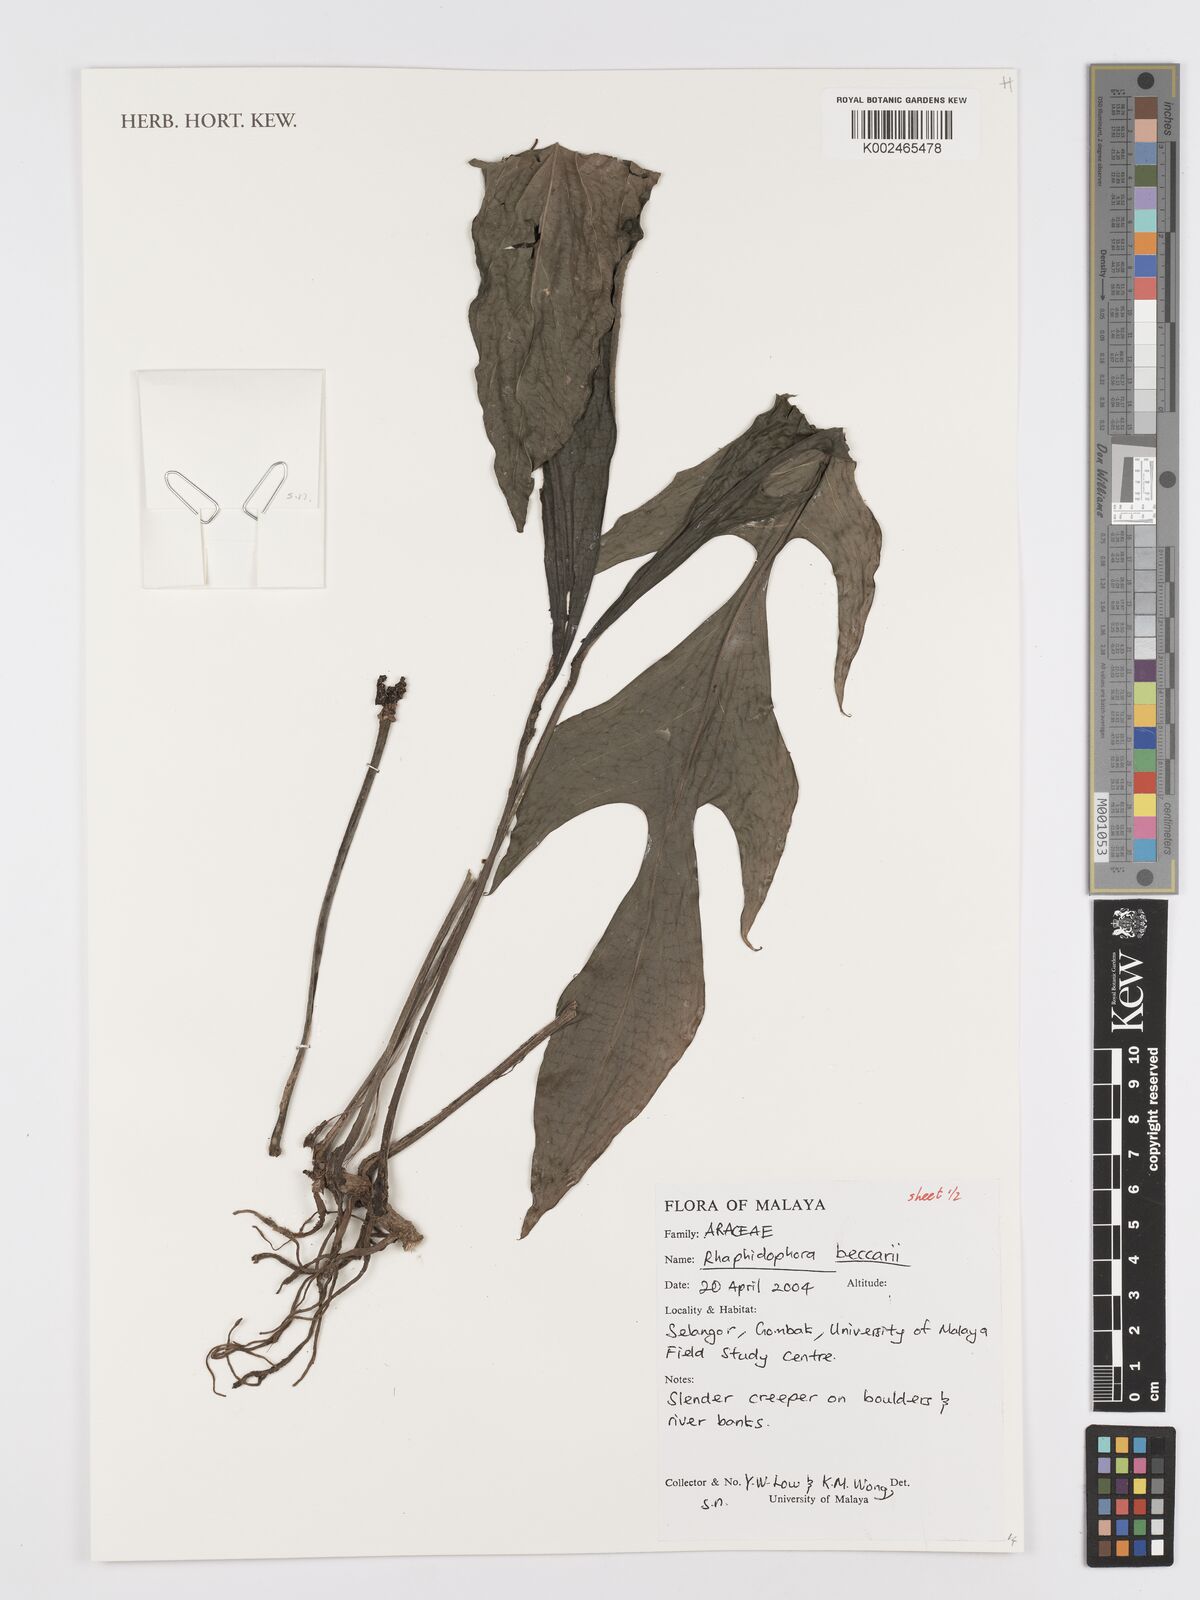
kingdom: Plantae
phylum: Tracheophyta
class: Liliopsida
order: Alismatales
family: Araceae
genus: Rhaphidophora
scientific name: Rhaphidophora beccarii
